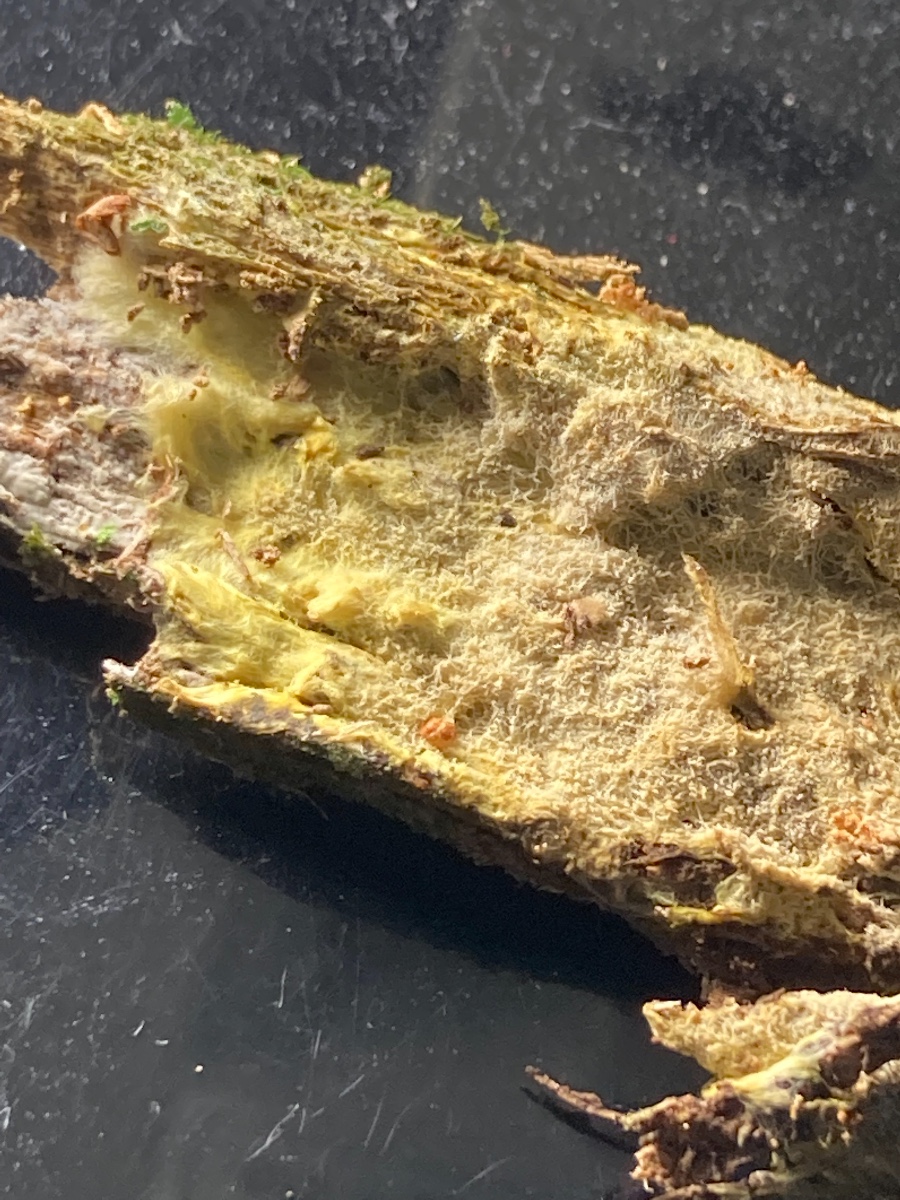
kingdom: Fungi
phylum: Basidiomycota
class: Agaricomycetes
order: Russulales
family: Xenasmataceae
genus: Xenasmatella
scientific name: Xenasmatella vaga
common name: svovl-strenghinde
